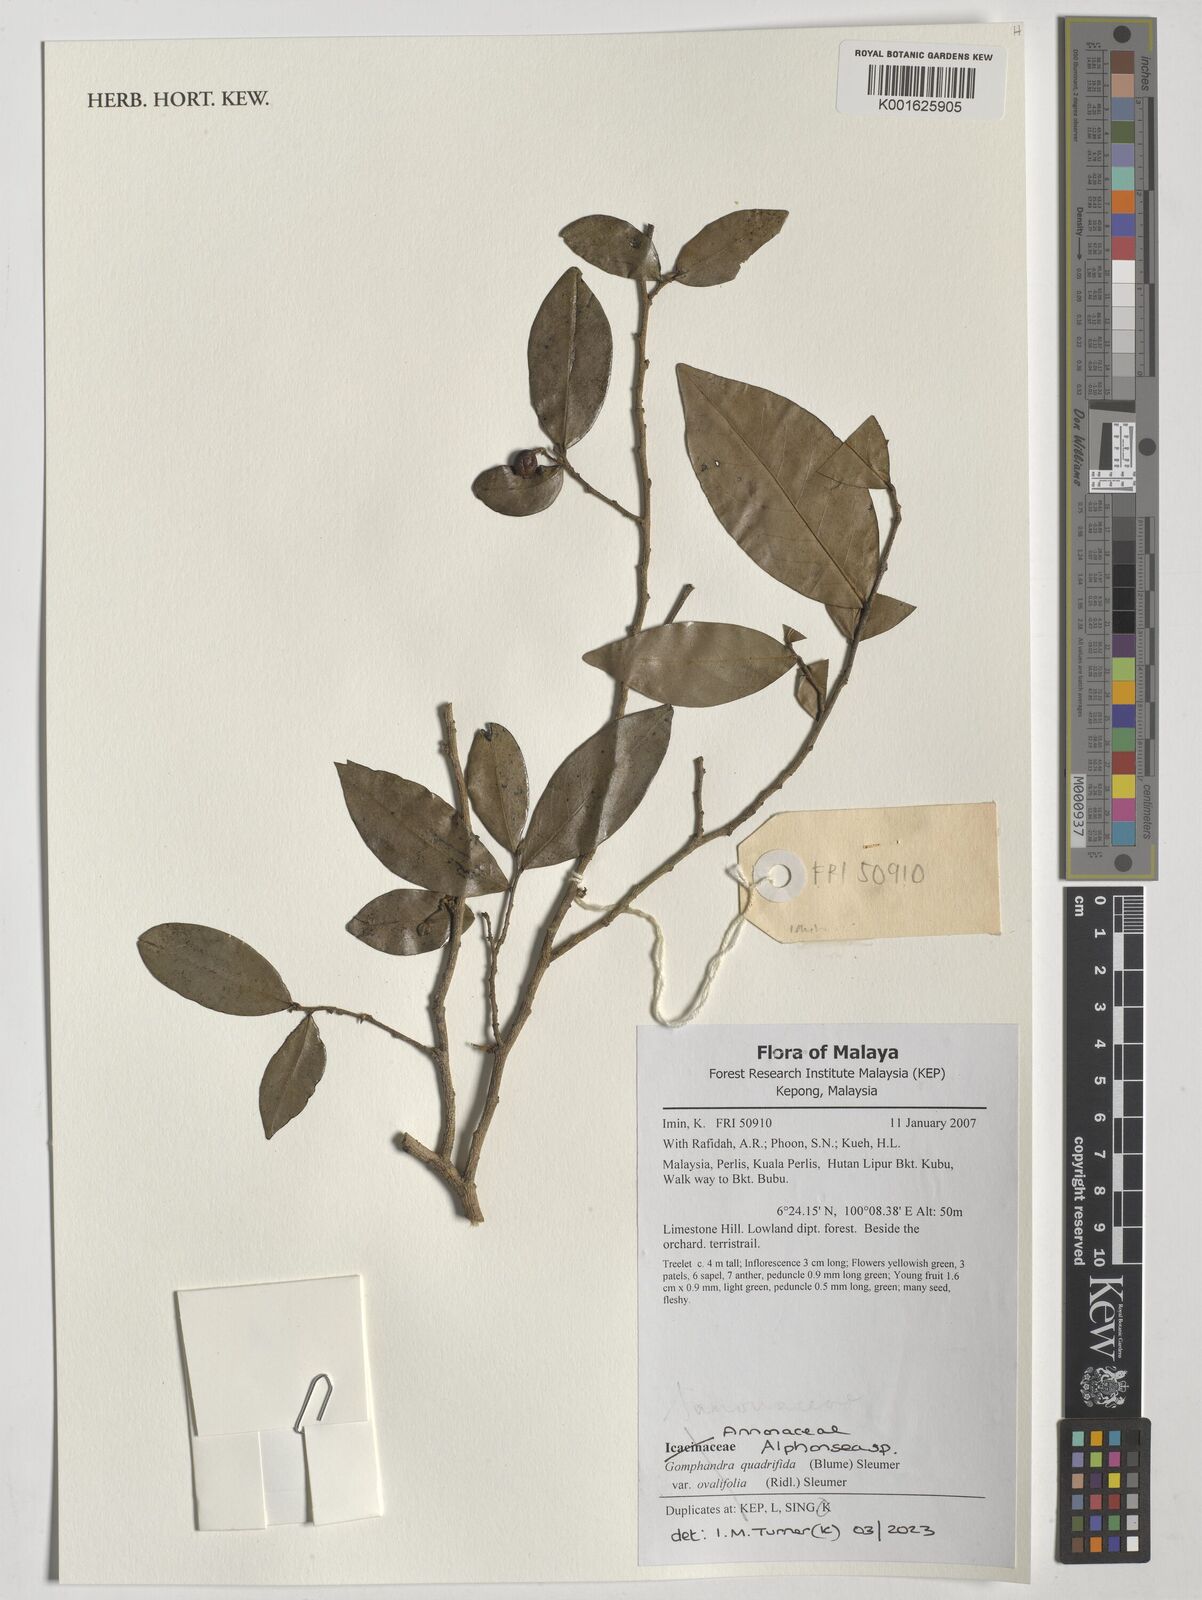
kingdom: Plantae
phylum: Tracheophyta
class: Magnoliopsida
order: Magnoliales
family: Annonaceae
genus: Alphonsea
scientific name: Alphonsea
